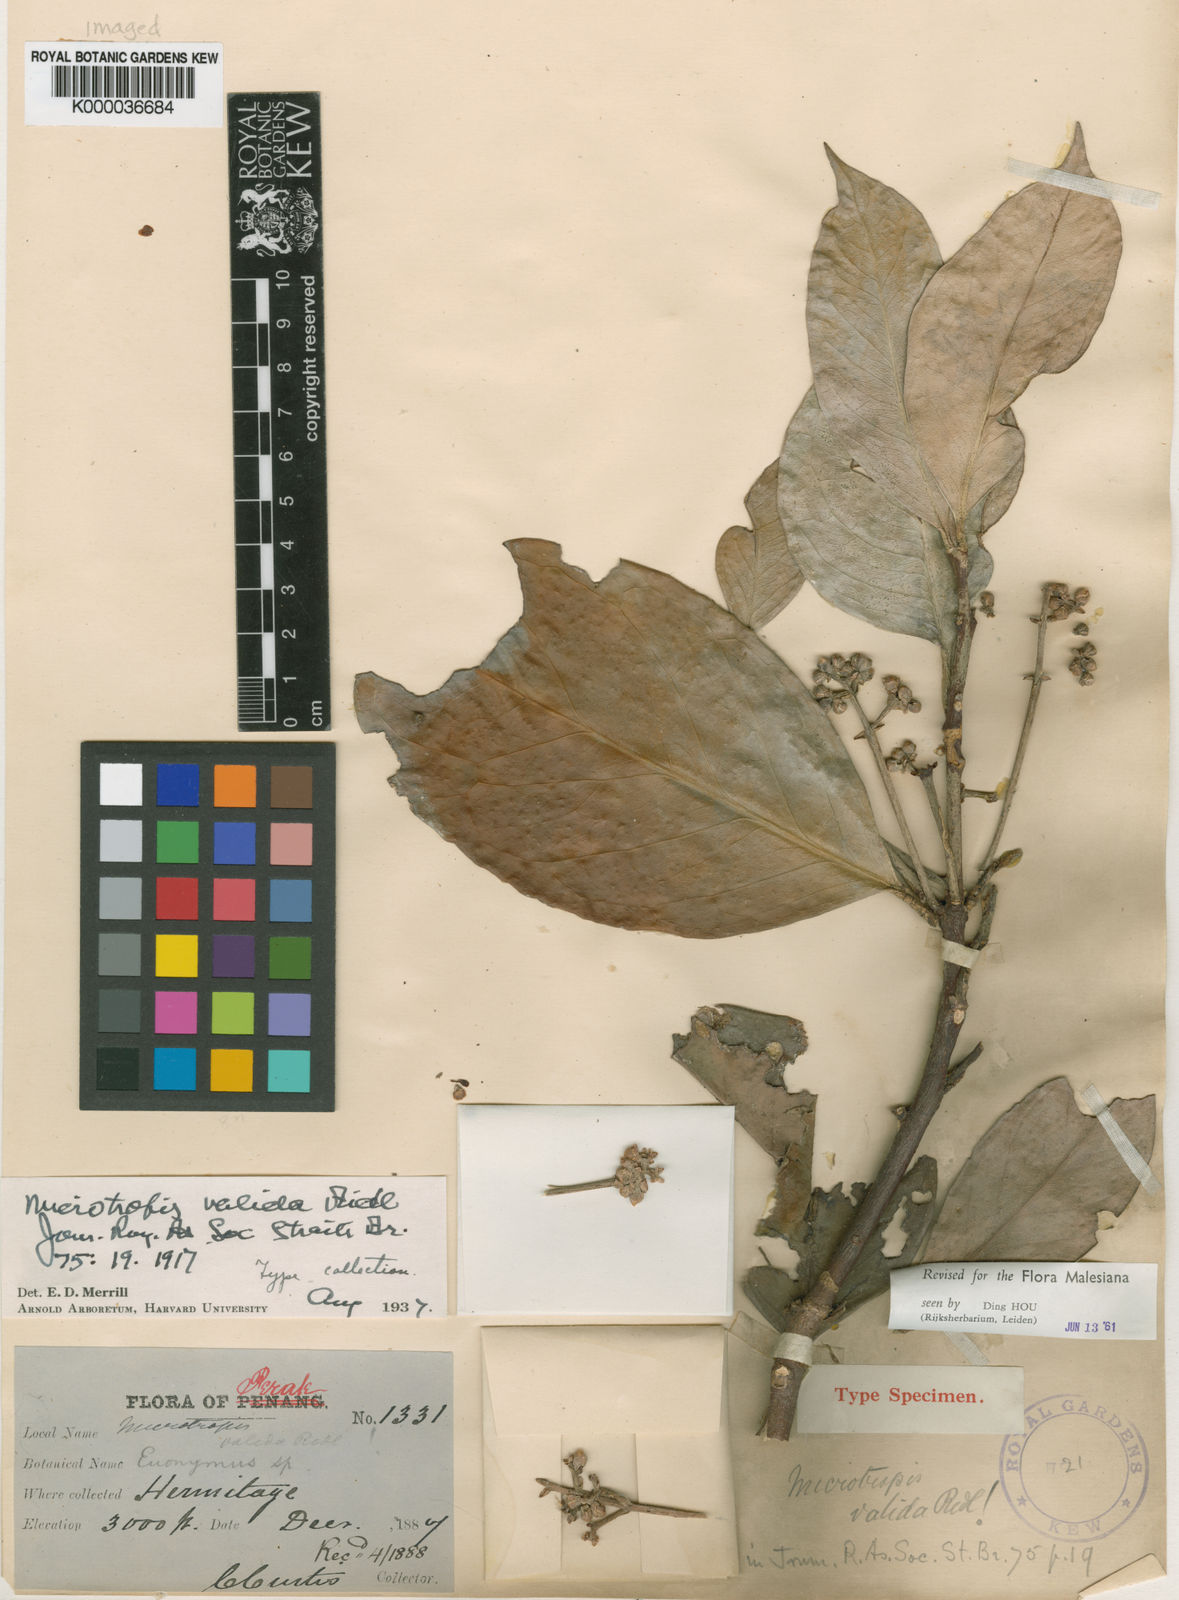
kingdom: Plantae
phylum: Tracheophyta
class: Magnoliopsida
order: Celastrales
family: Celastraceae
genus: Microtropis
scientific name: Microtropis valida
